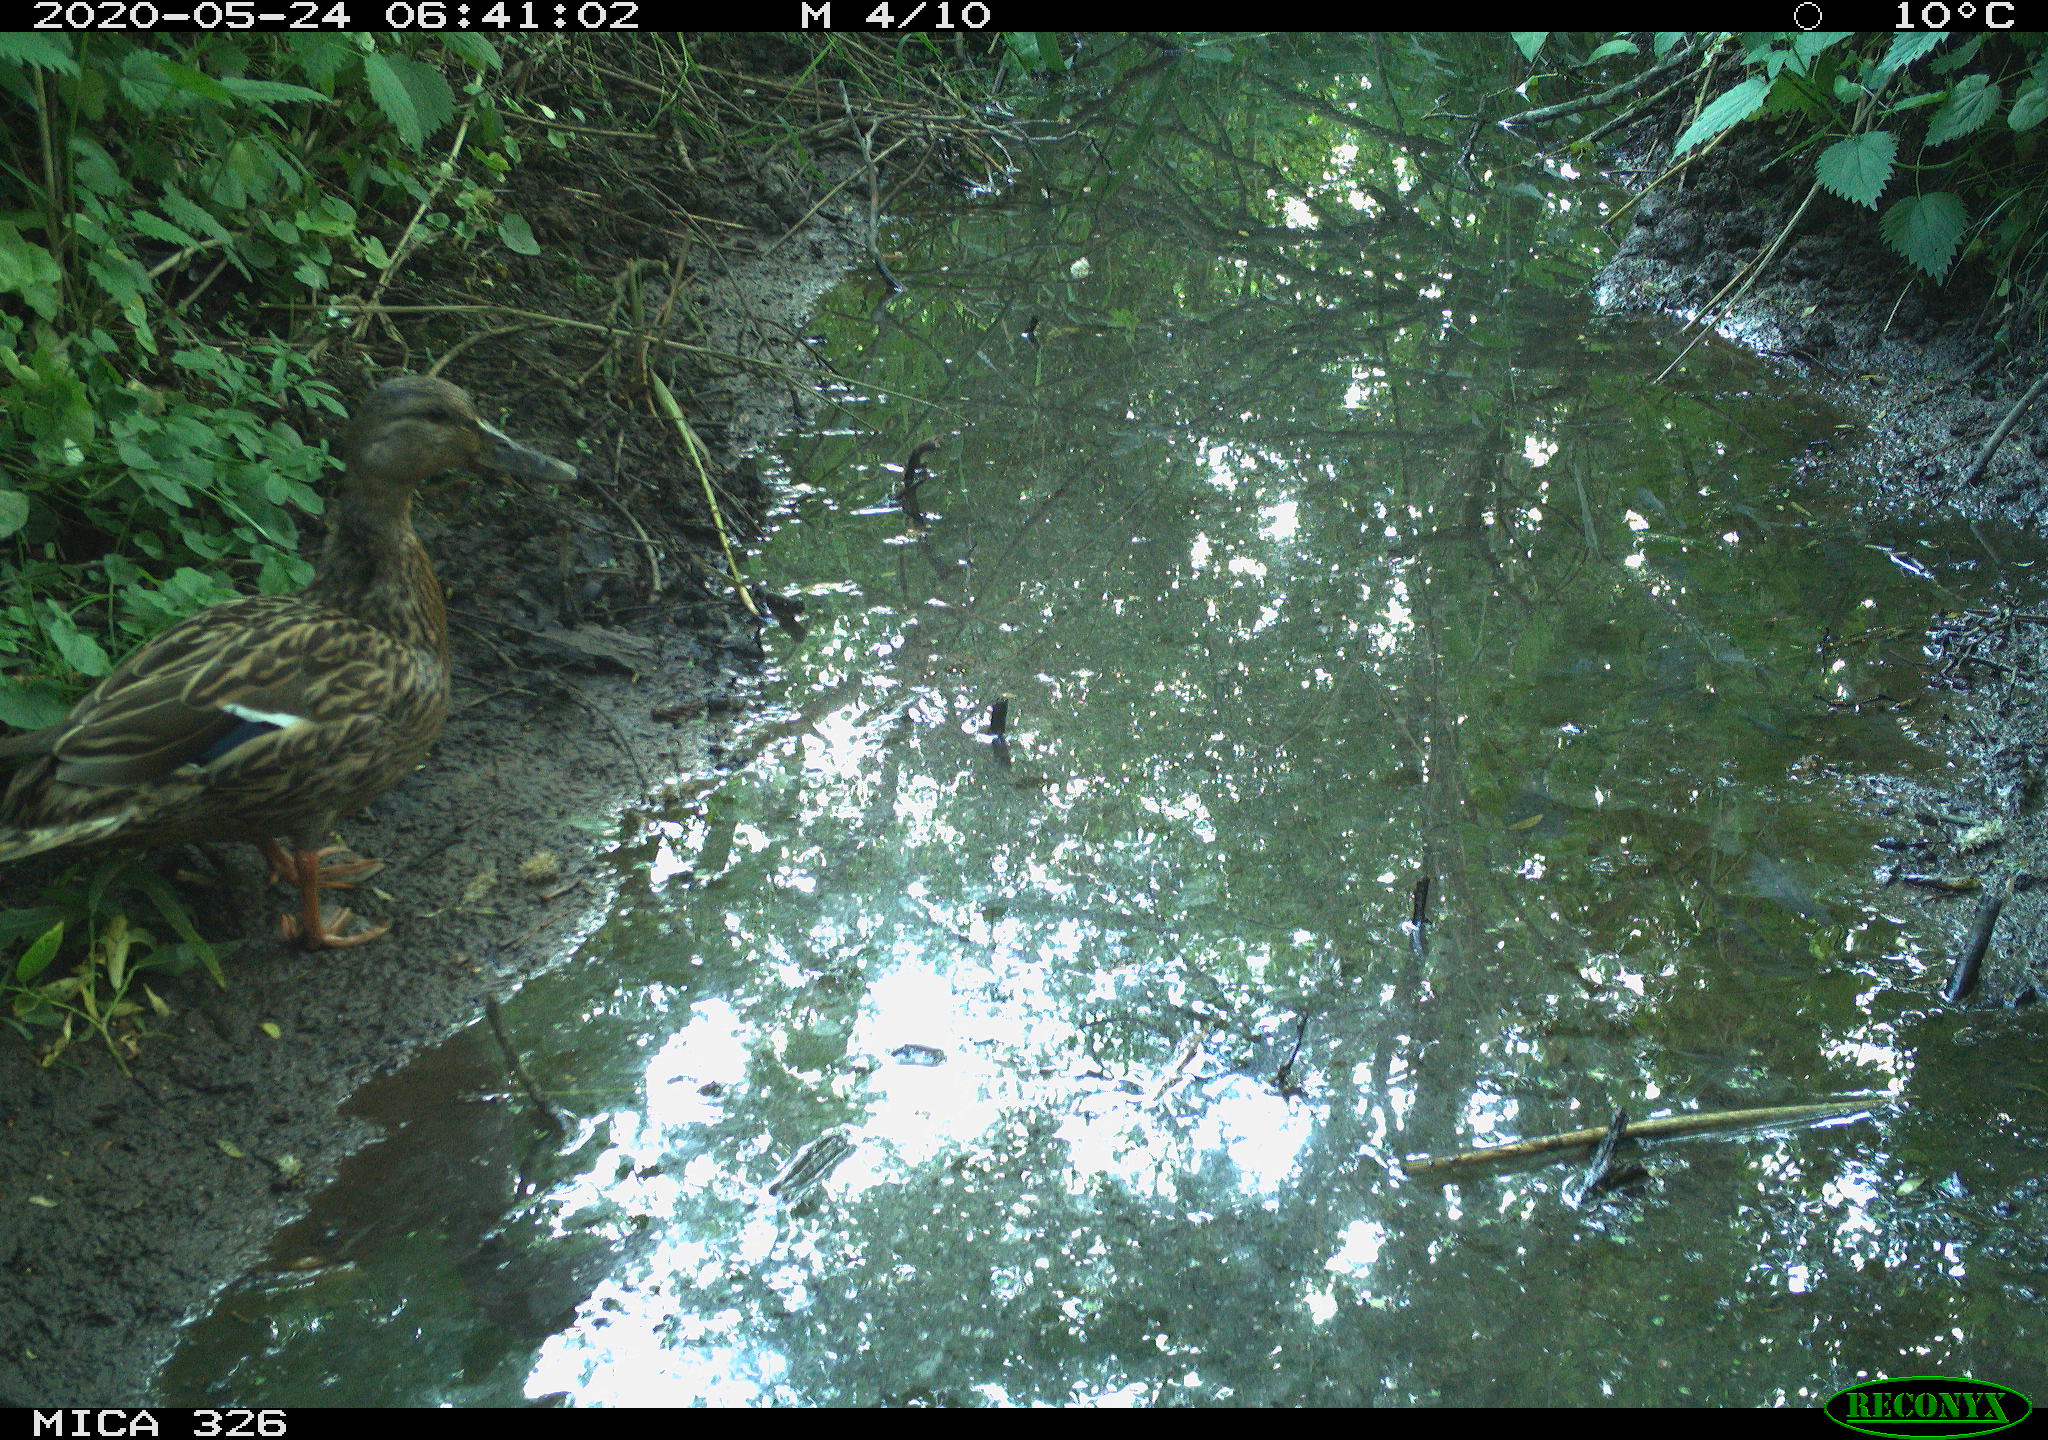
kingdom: Animalia
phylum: Chordata
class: Aves
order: Anseriformes
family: Anatidae
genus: Anas
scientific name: Anas platyrhynchos
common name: Mallard
